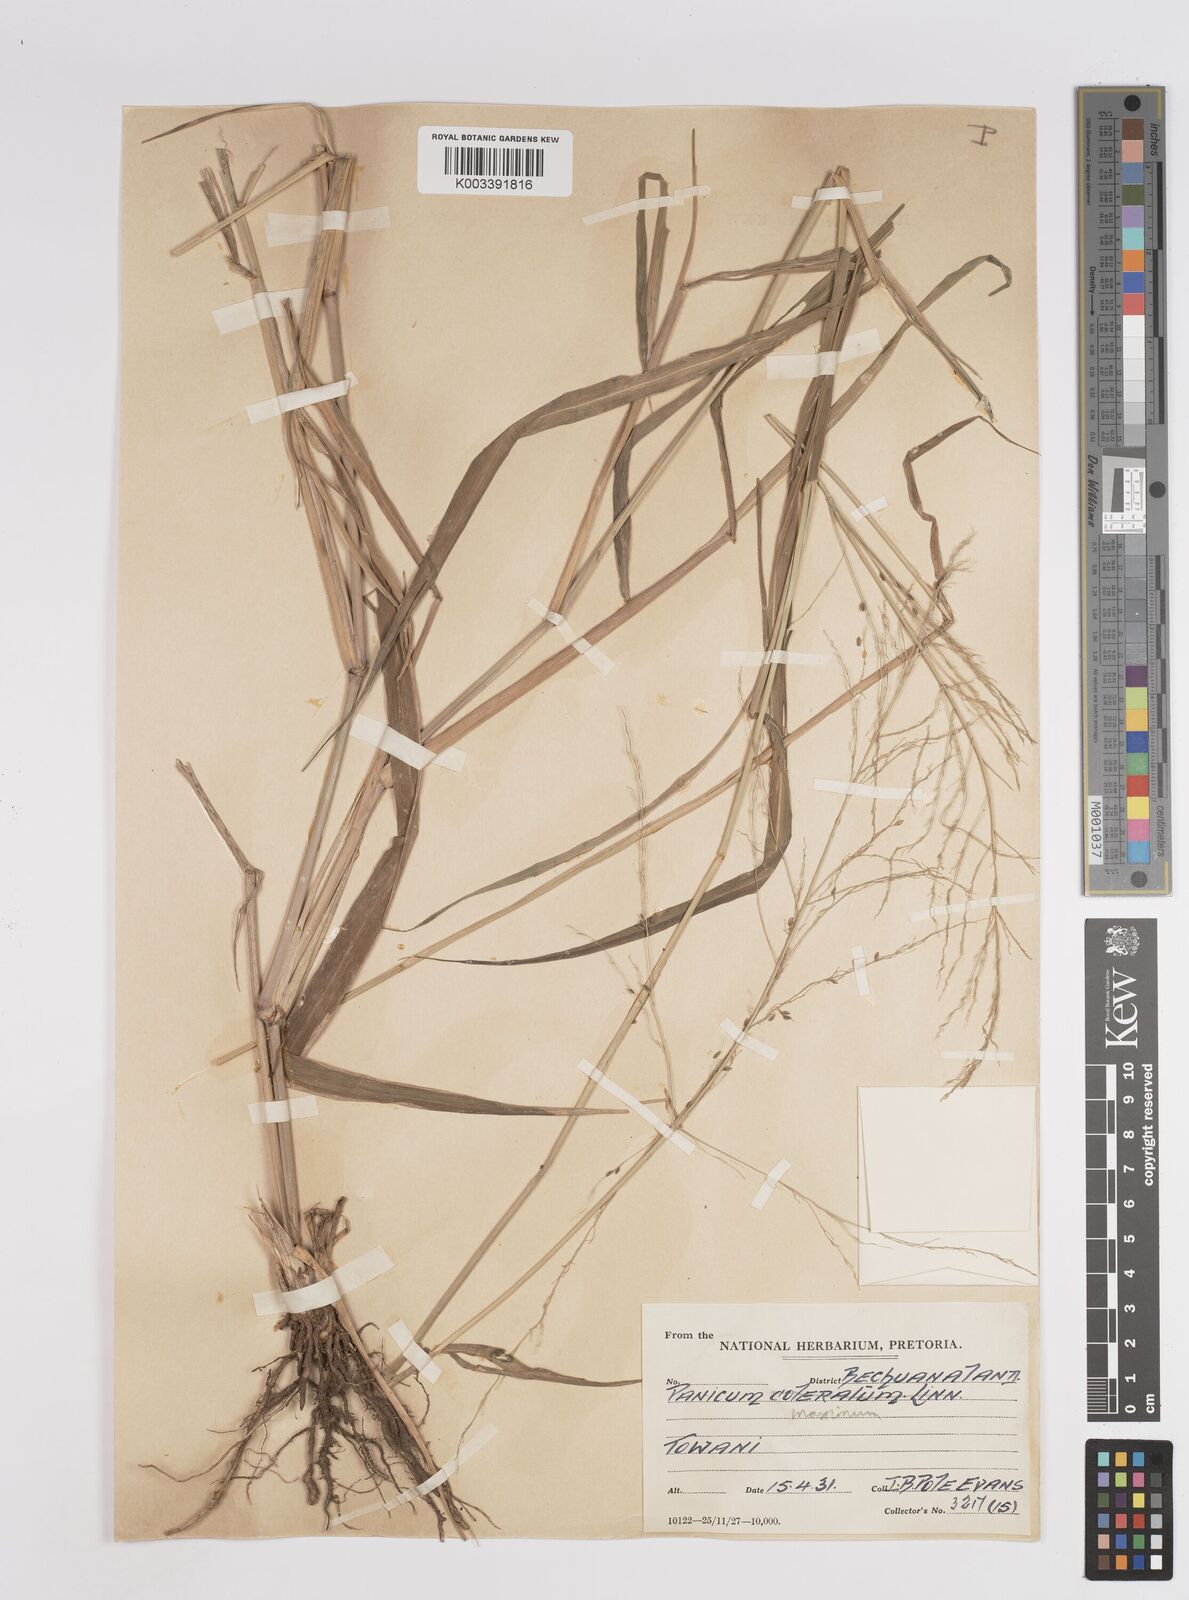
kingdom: Plantae
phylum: Tracheophyta
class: Liliopsida
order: Poales
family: Poaceae
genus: Megathyrsus
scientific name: Megathyrsus maximus
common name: Guineagrass
